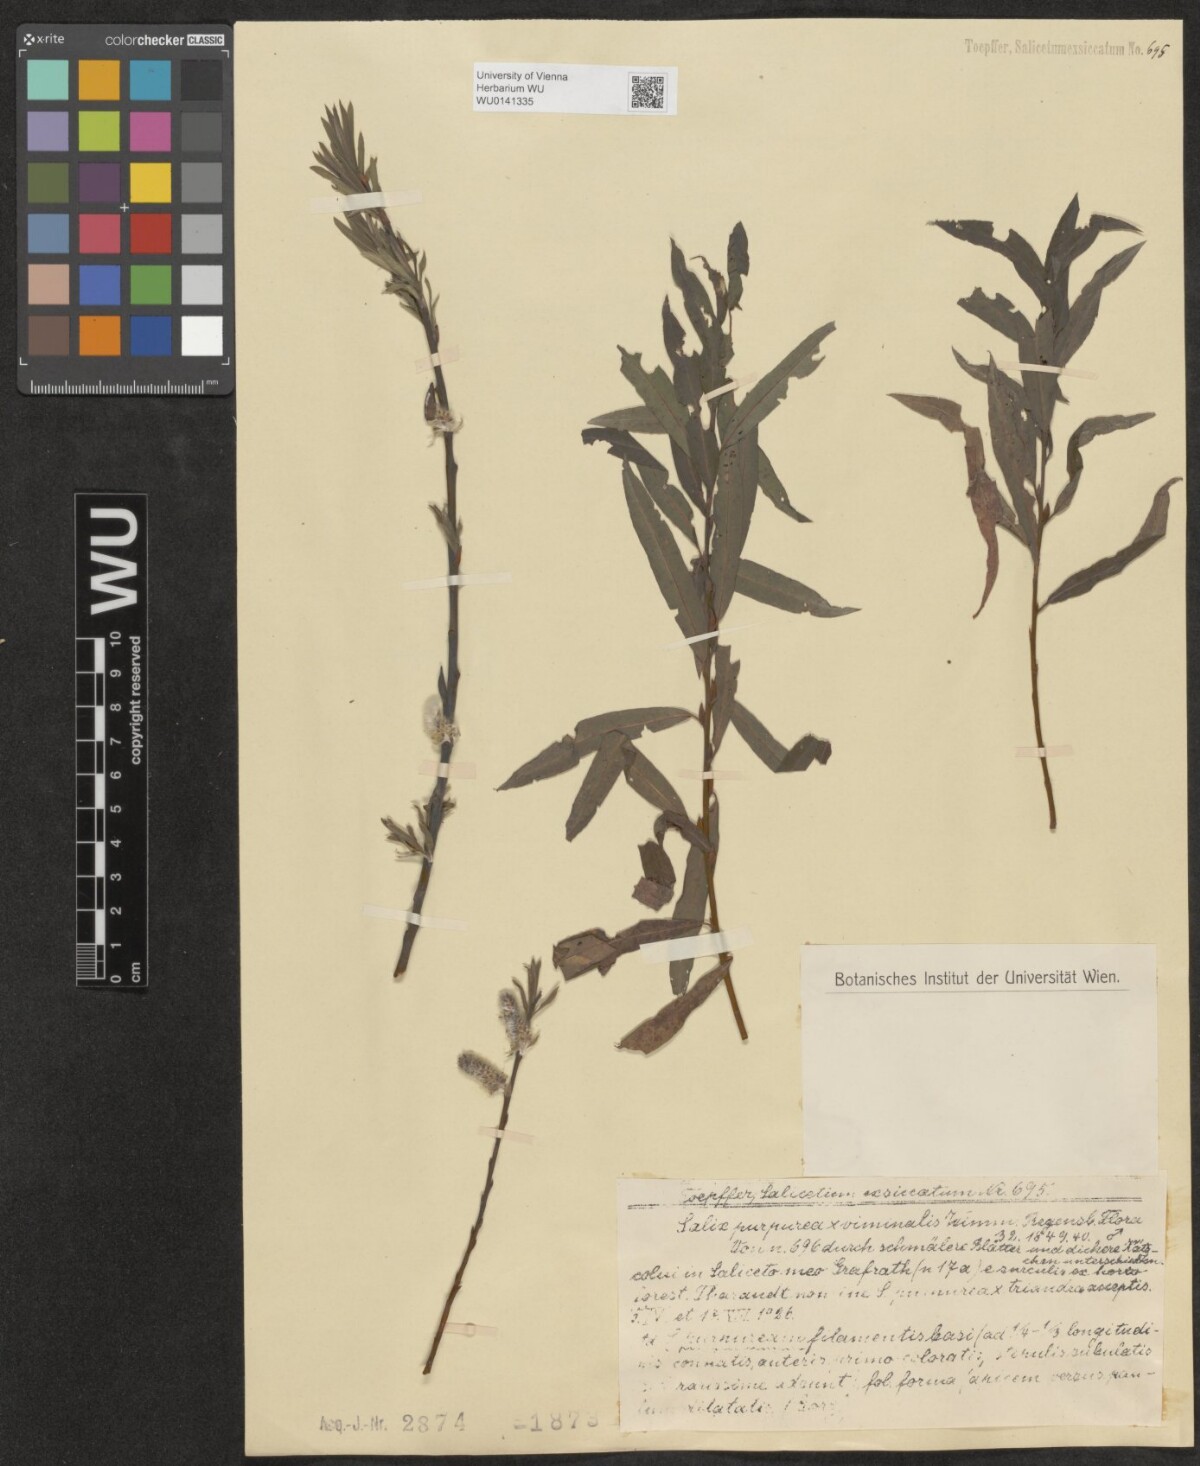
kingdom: Plantae
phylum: Tracheophyta
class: Magnoliopsida
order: Malpighiales
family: Salicaceae
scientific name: Salicaceae
